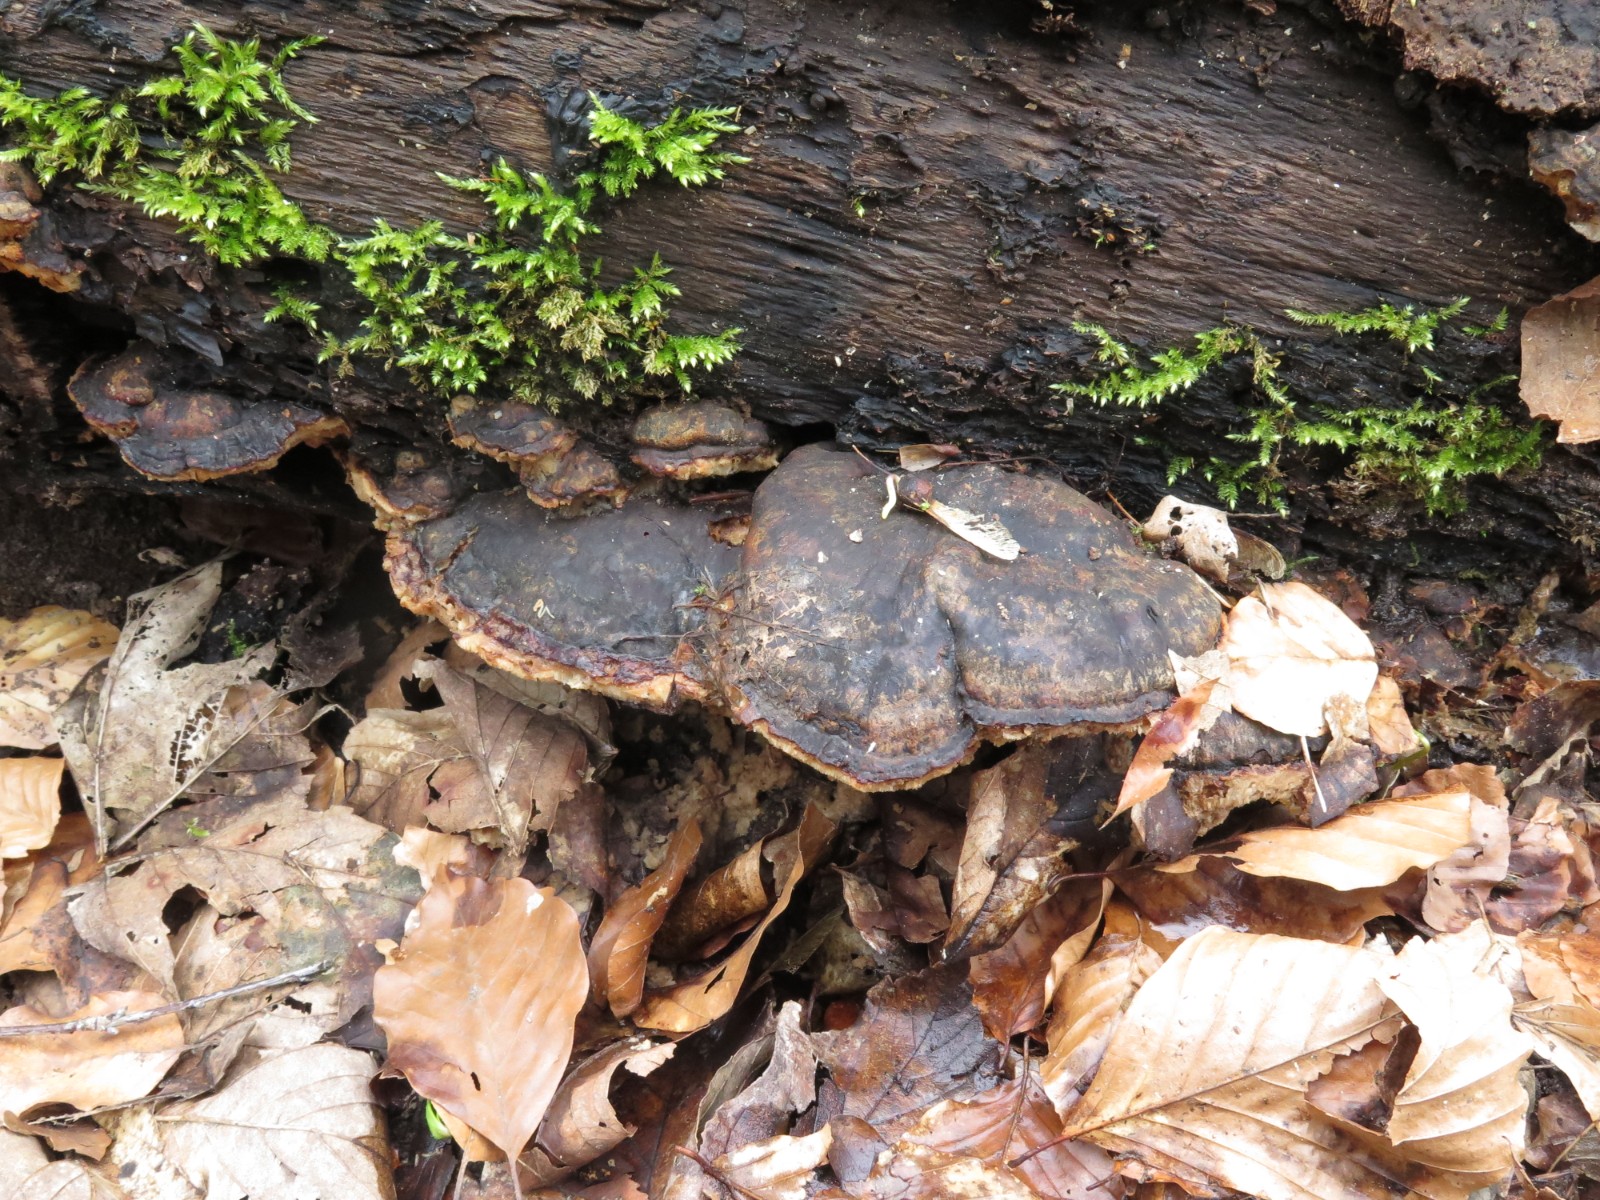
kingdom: Fungi
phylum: Basidiomycota
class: Agaricomycetes
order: Gloeophyllales
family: Gloeophyllaceae
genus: Gloeophyllum
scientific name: Gloeophyllum odoratum
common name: duftende korkhat
